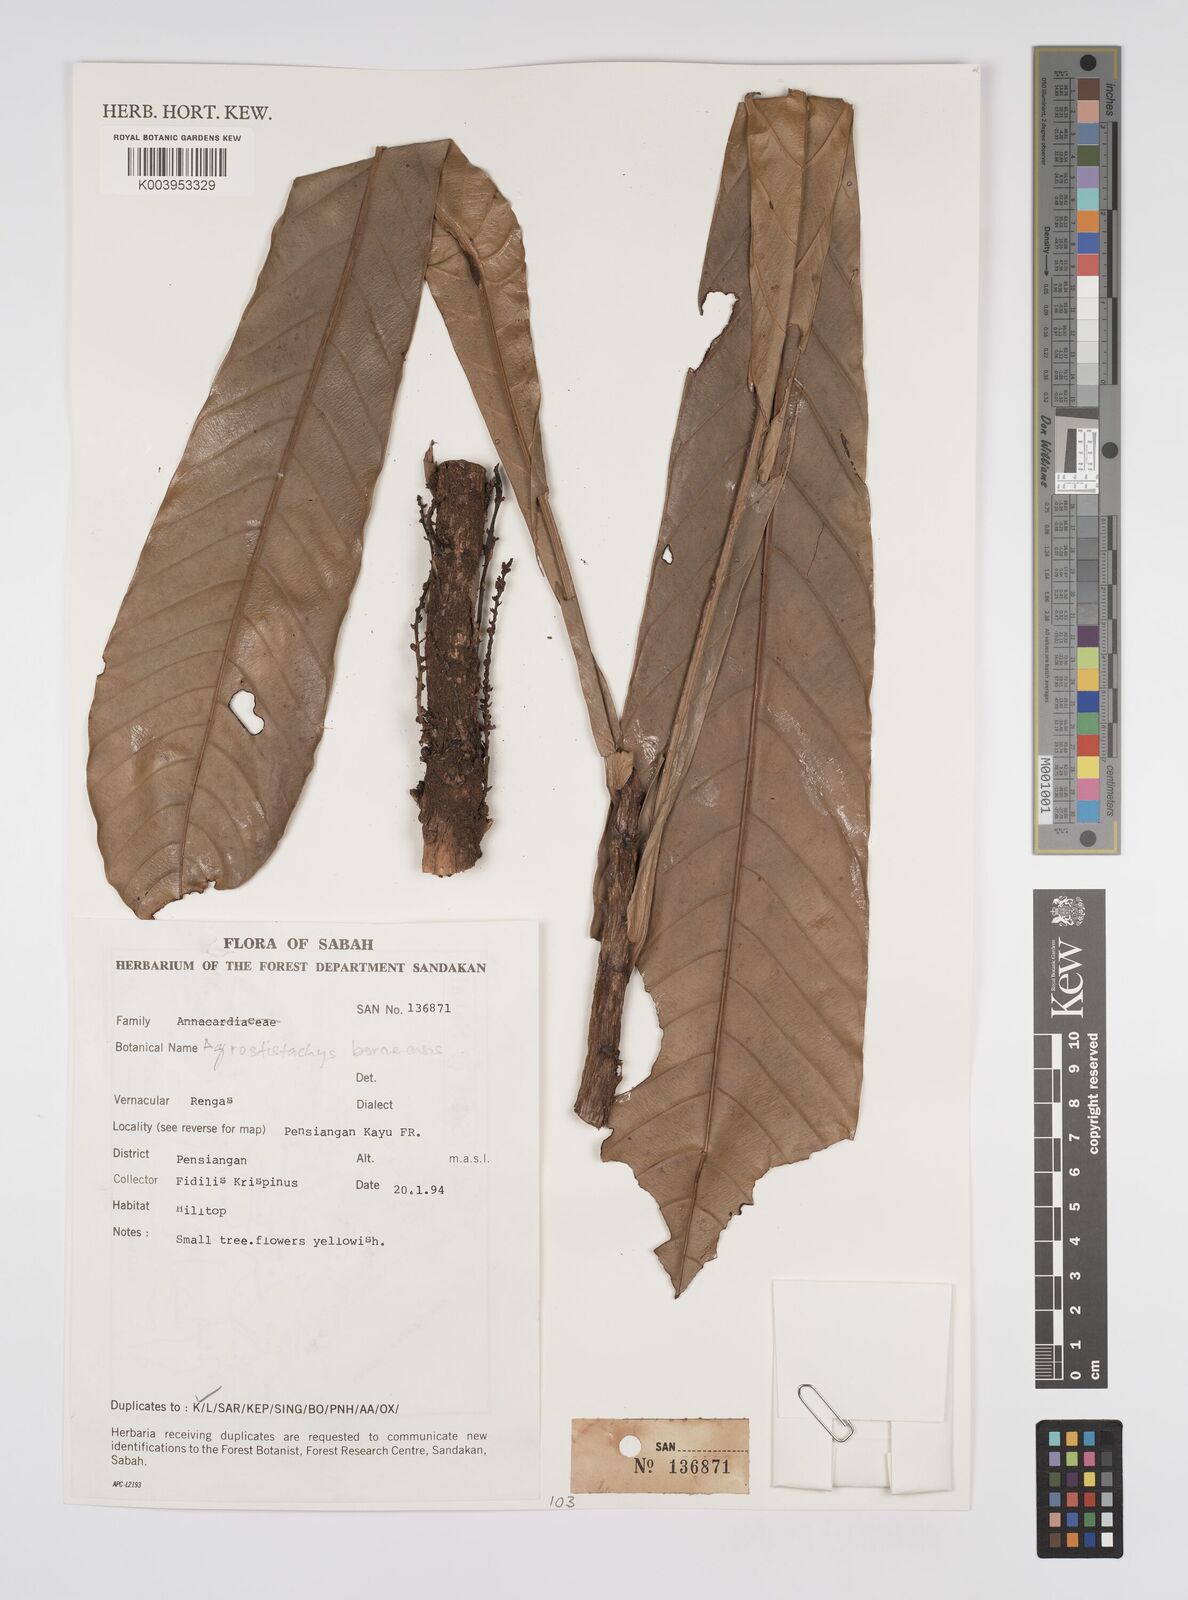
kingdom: Plantae
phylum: Tracheophyta
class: Magnoliopsida
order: Malpighiales
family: Euphorbiaceae
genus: Agrostistachys
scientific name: Agrostistachys borneensis
